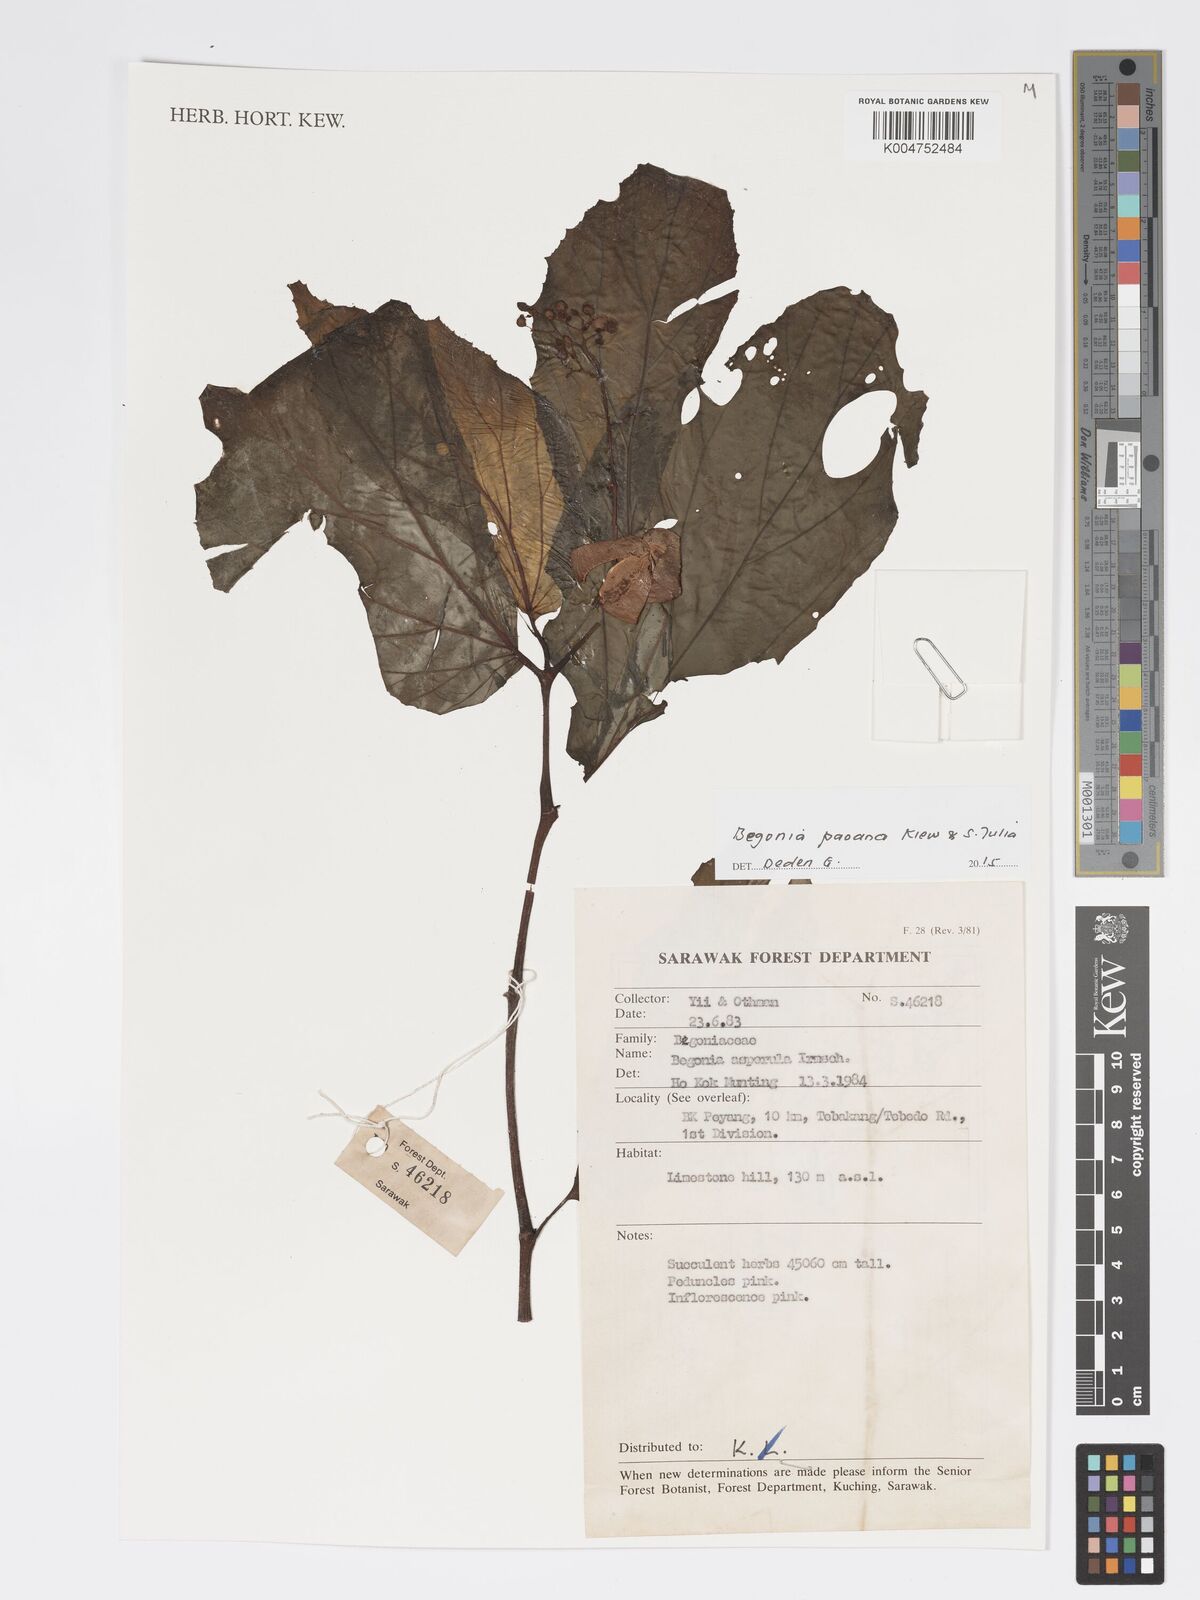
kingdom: Plantae
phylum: Tracheophyta
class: Magnoliopsida
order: Cucurbitales
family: Begoniaceae
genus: Begonia
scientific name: Begonia paoana
